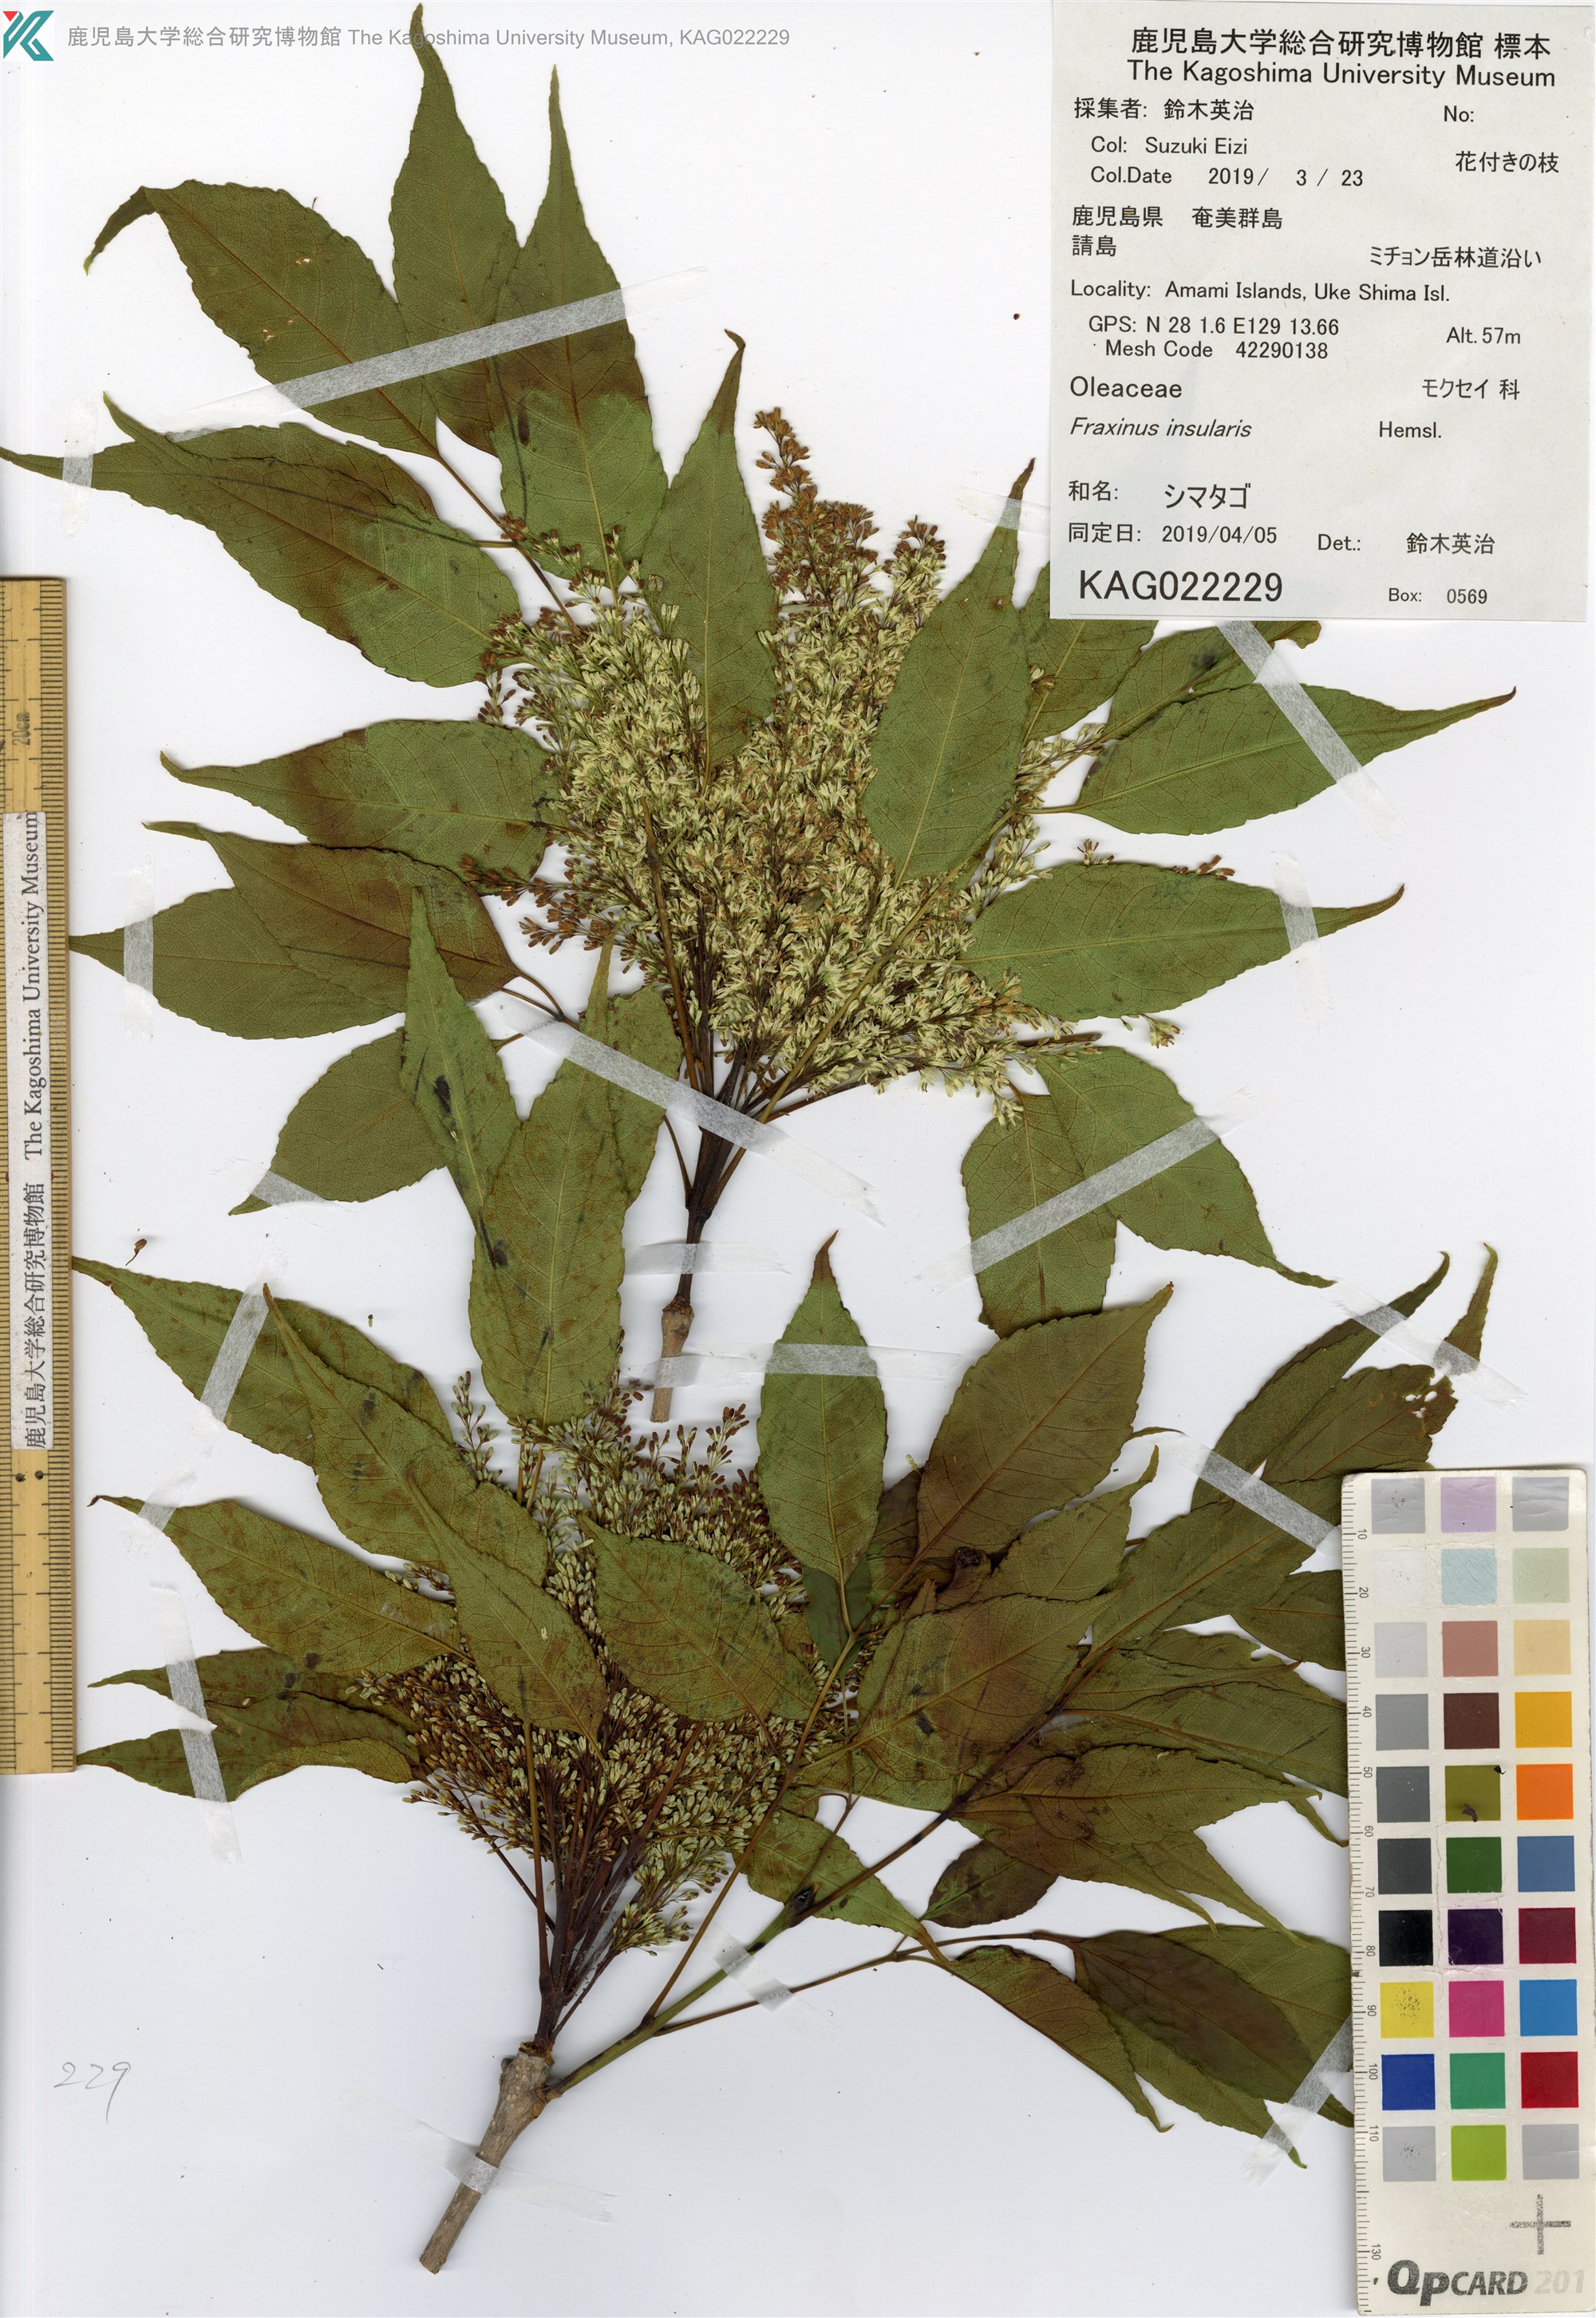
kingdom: Plantae
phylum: Tracheophyta
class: Magnoliopsida
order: Lamiales
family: Oleaceae
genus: Fraxinus
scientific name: Fraxinus insularis
